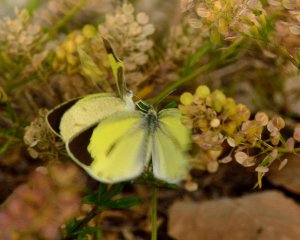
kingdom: Animalia
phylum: Arthropoda
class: Insecta
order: Lepidoptera
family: Pieridae
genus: Eurema
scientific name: Eurema daira
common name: Barred Yellow
